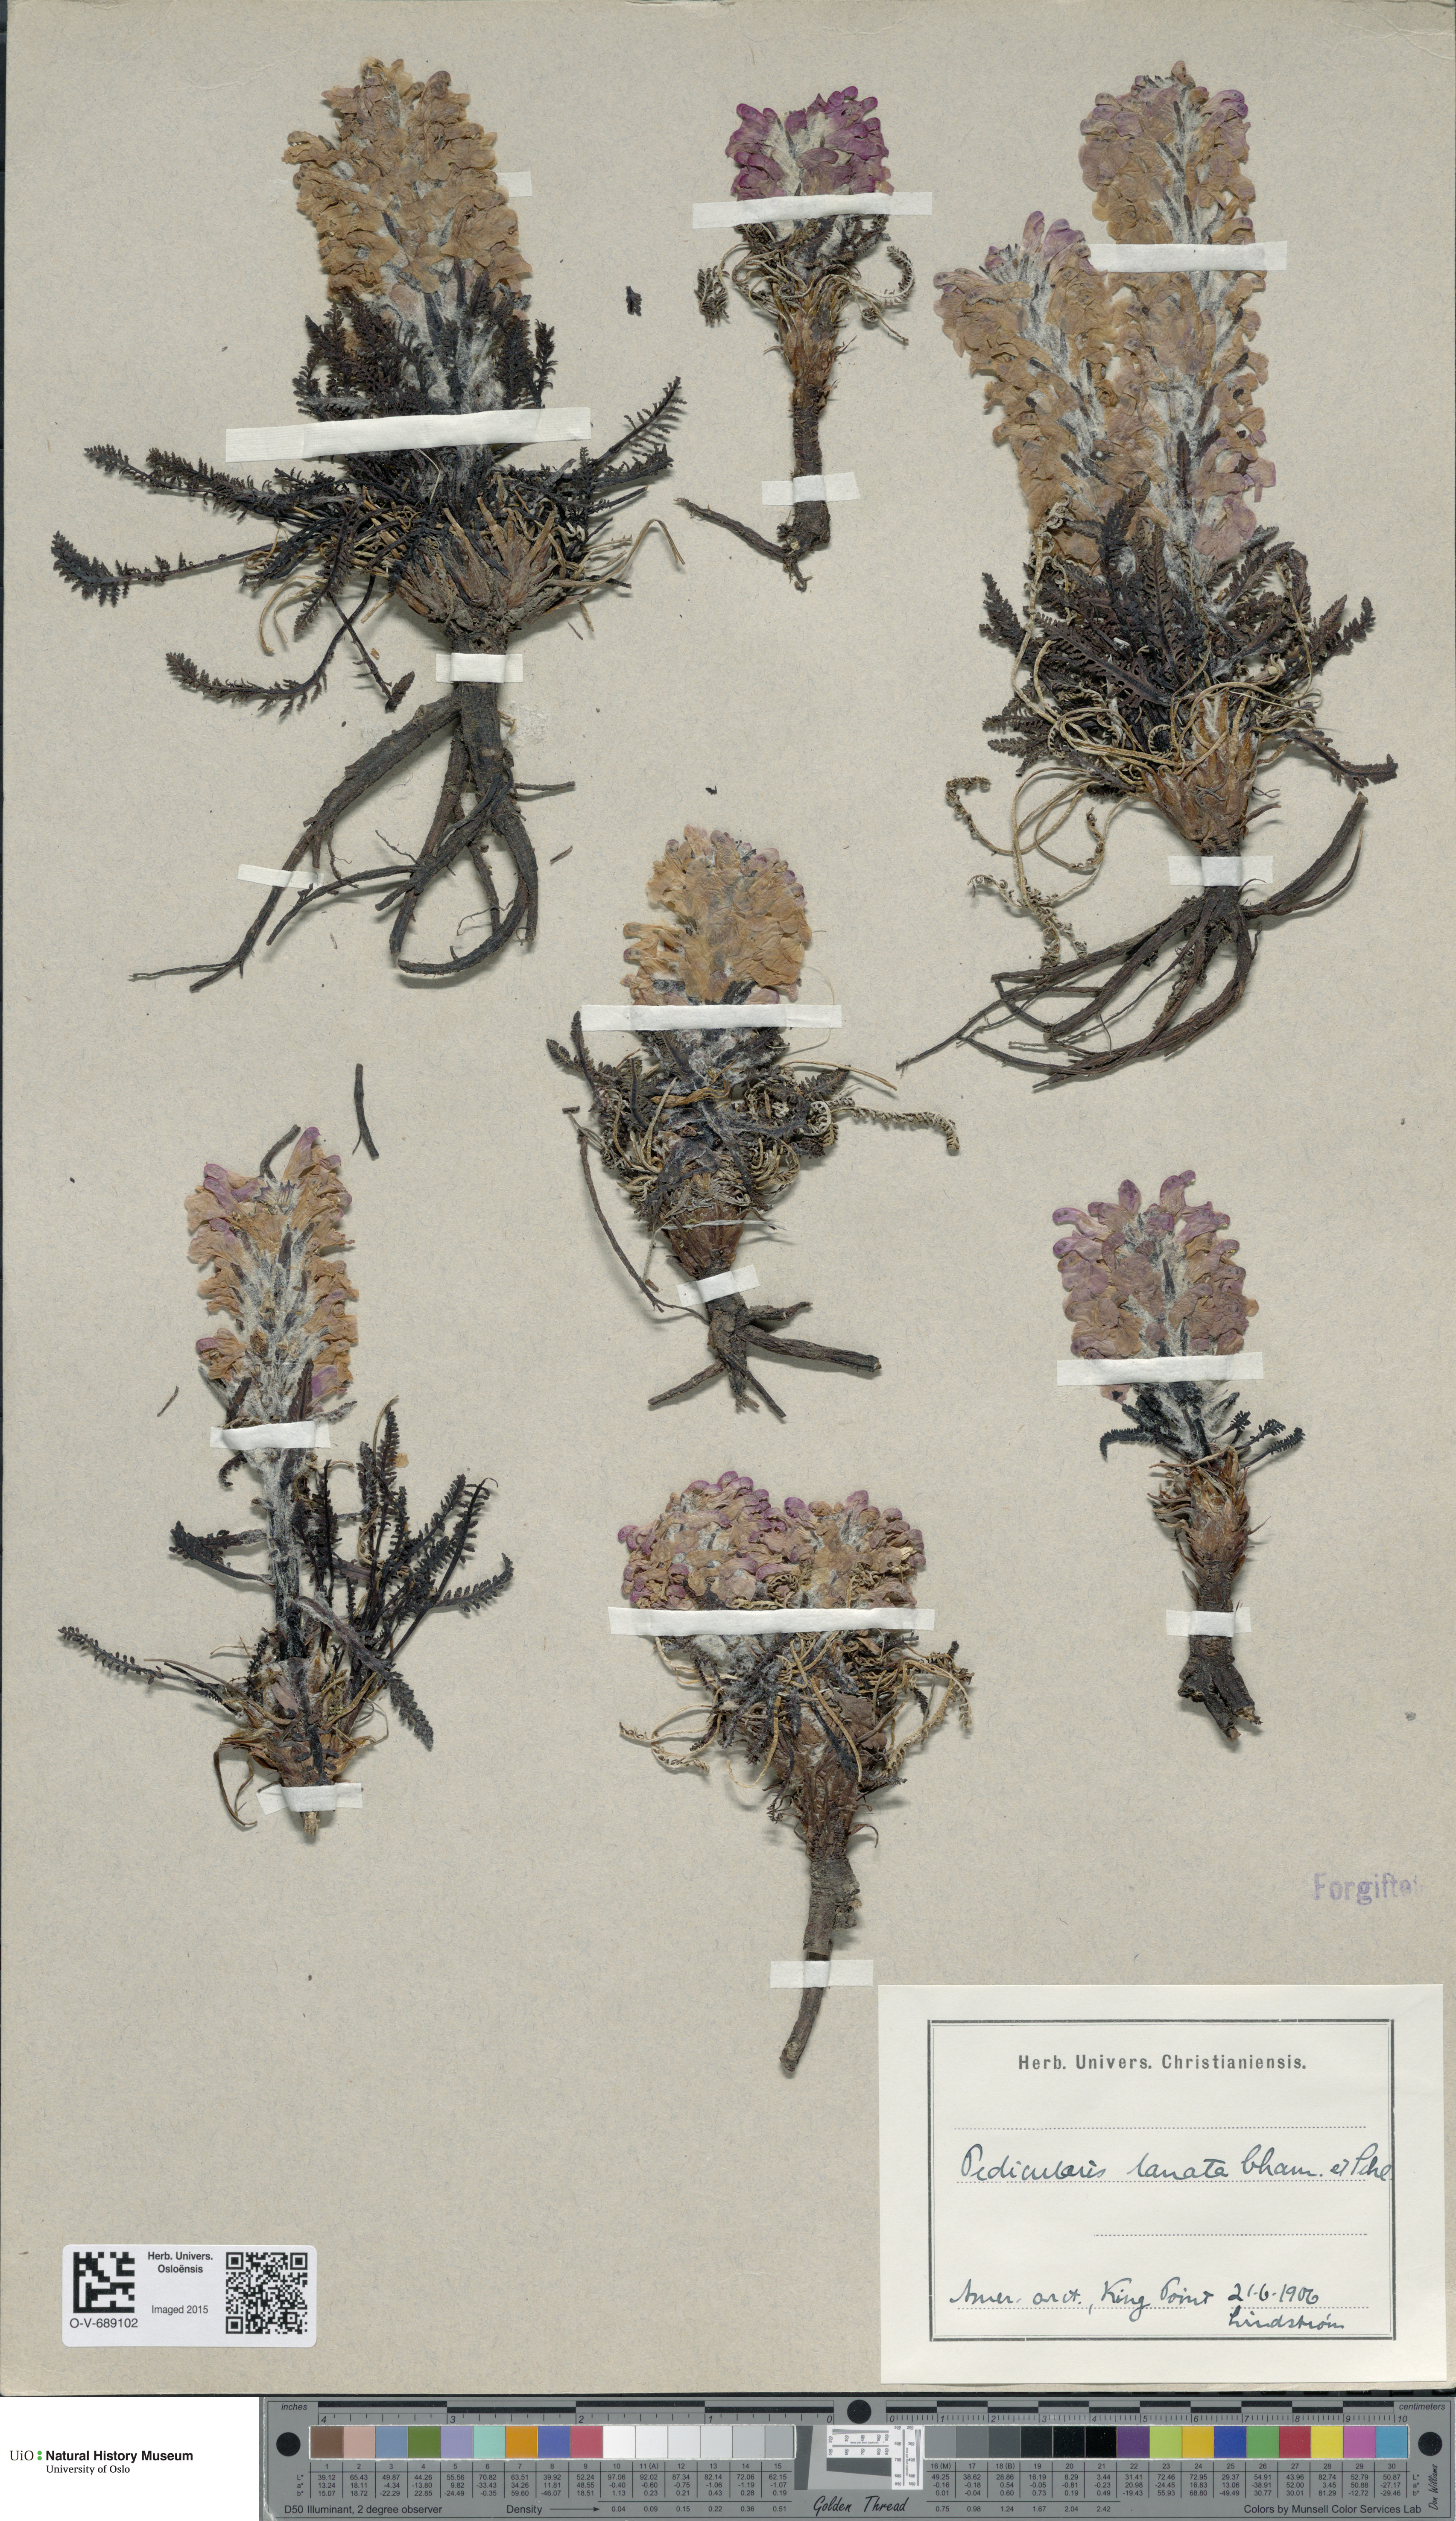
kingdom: Plantae
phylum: Tracheophyta
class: Magnoliopsida
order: Lamiales
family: Orobanchaceae
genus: Pedicularis
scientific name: Pedicularis lanata
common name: Woolly lousewort
